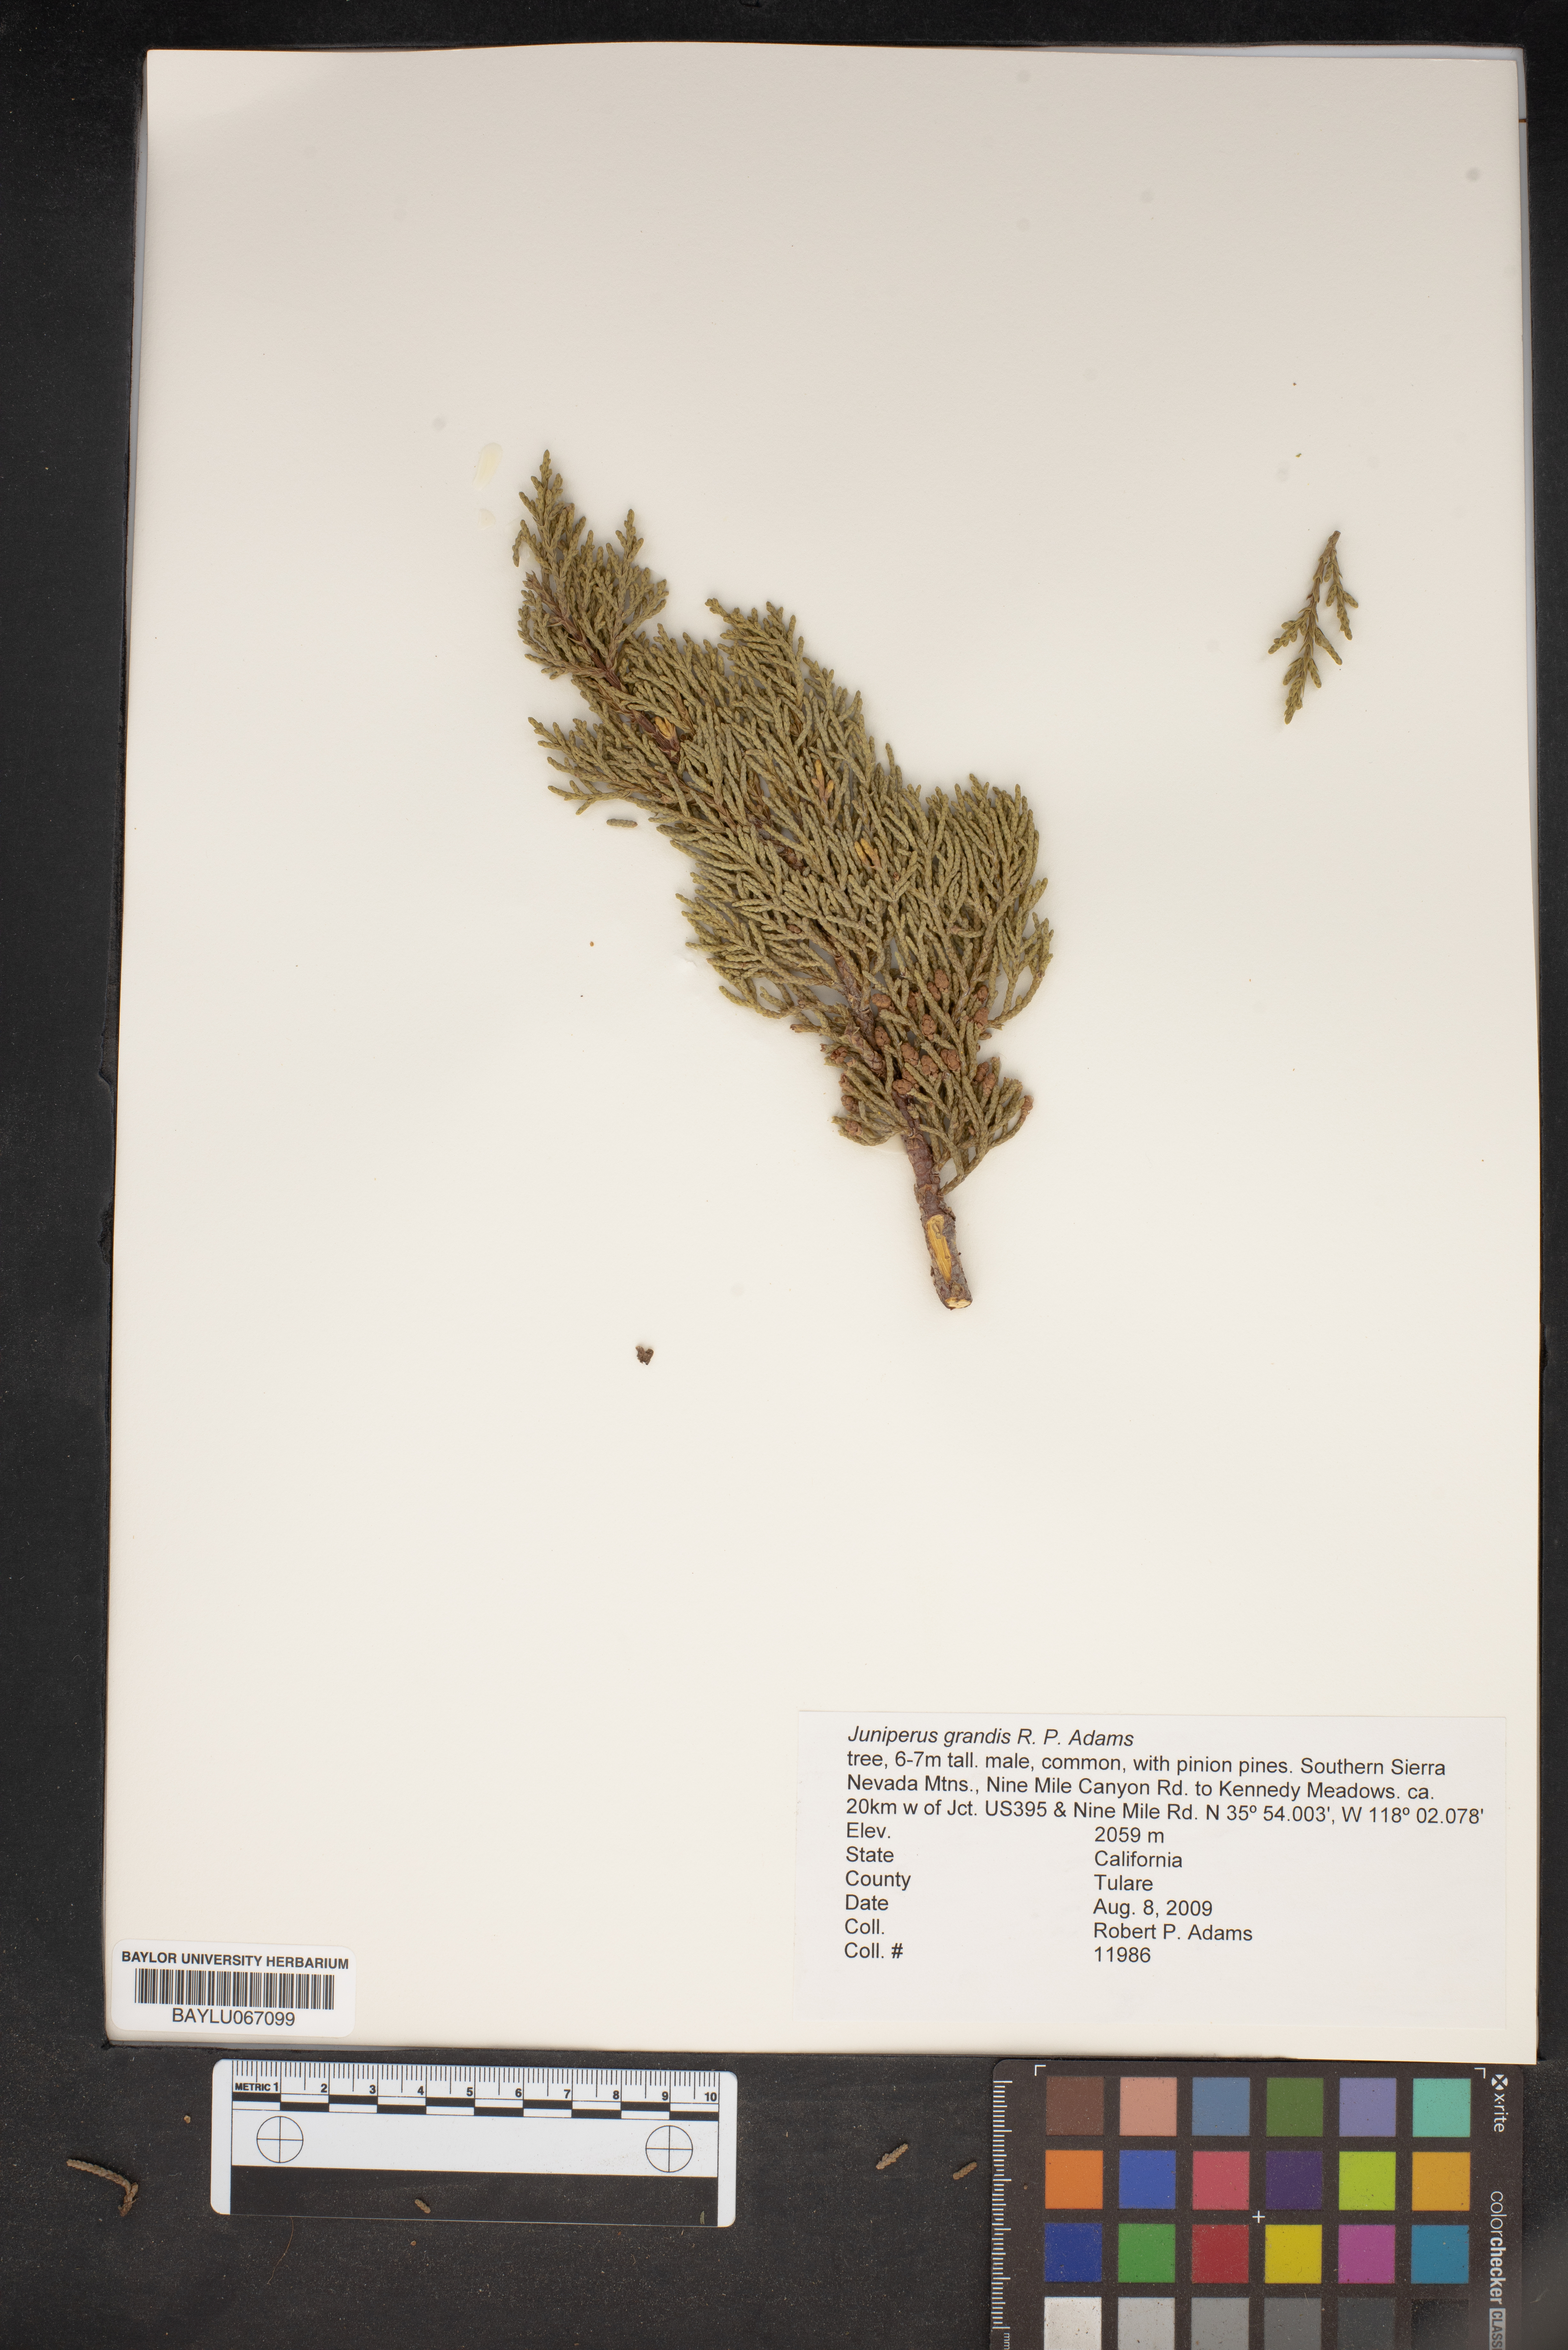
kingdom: Plantae
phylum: Tracheophyta
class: Pinopsida
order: Pinales
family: Cupressaceae
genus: Juniperus
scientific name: Juniperus occidentalis
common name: Western juniper
